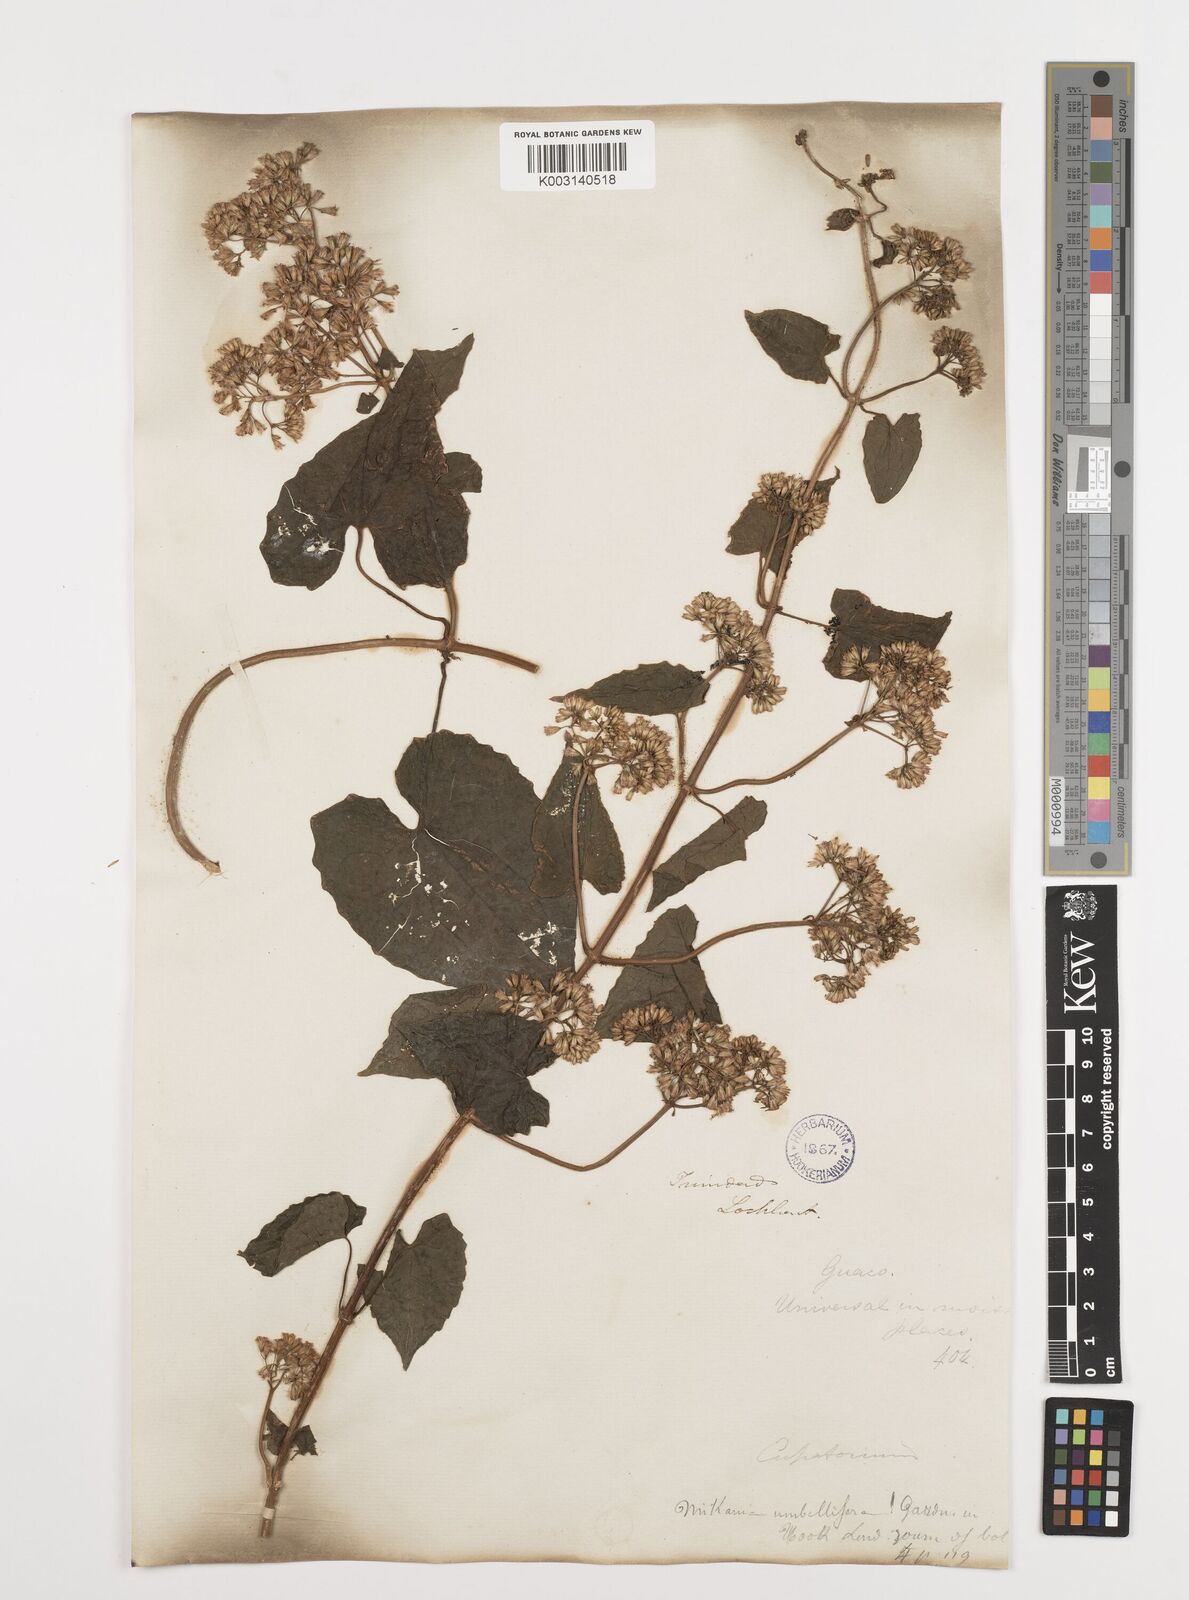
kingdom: Plantae
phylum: Tracheophyta
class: Magnoliopsida
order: Asterales
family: Asteraceae
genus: Mikania
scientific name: Mikania micrantha
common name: Mile-a-minute
